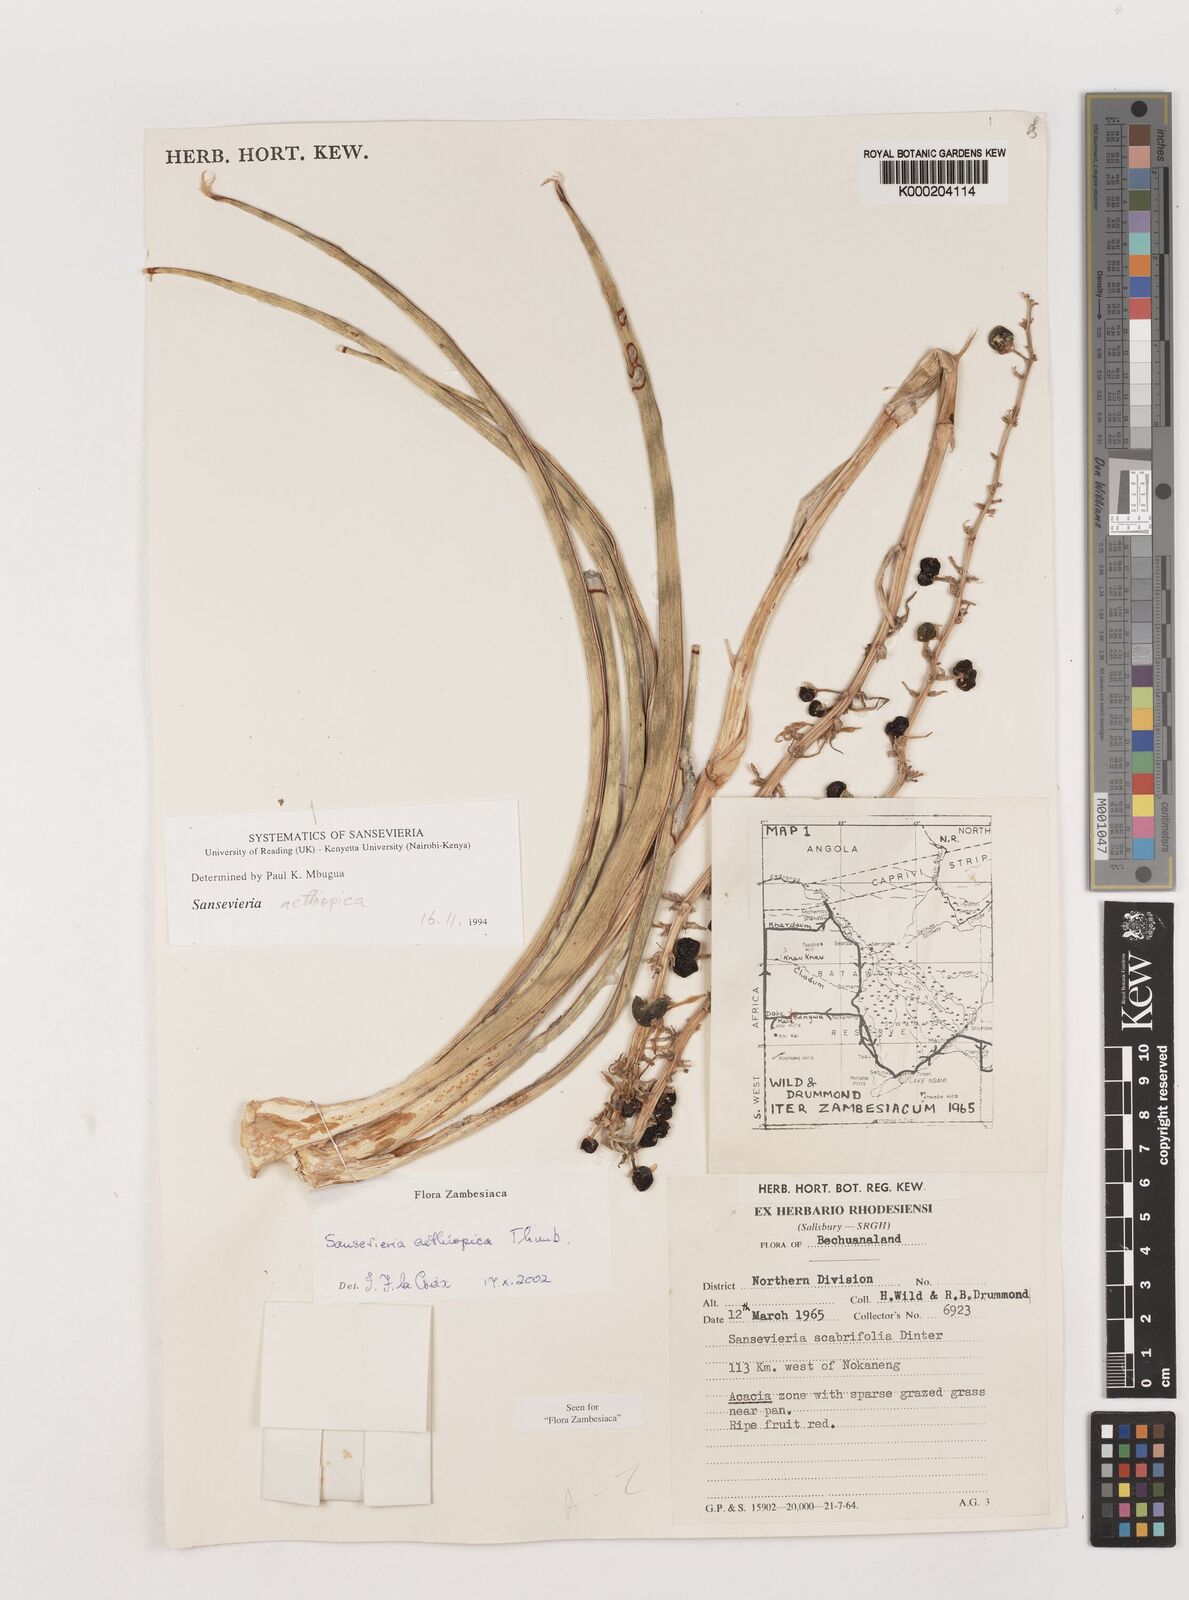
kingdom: Plantae
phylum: Tracheophyta
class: Liliopsida
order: Asparagales
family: Asparagaceae
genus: Dracaena
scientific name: Dracaena aethiopica
